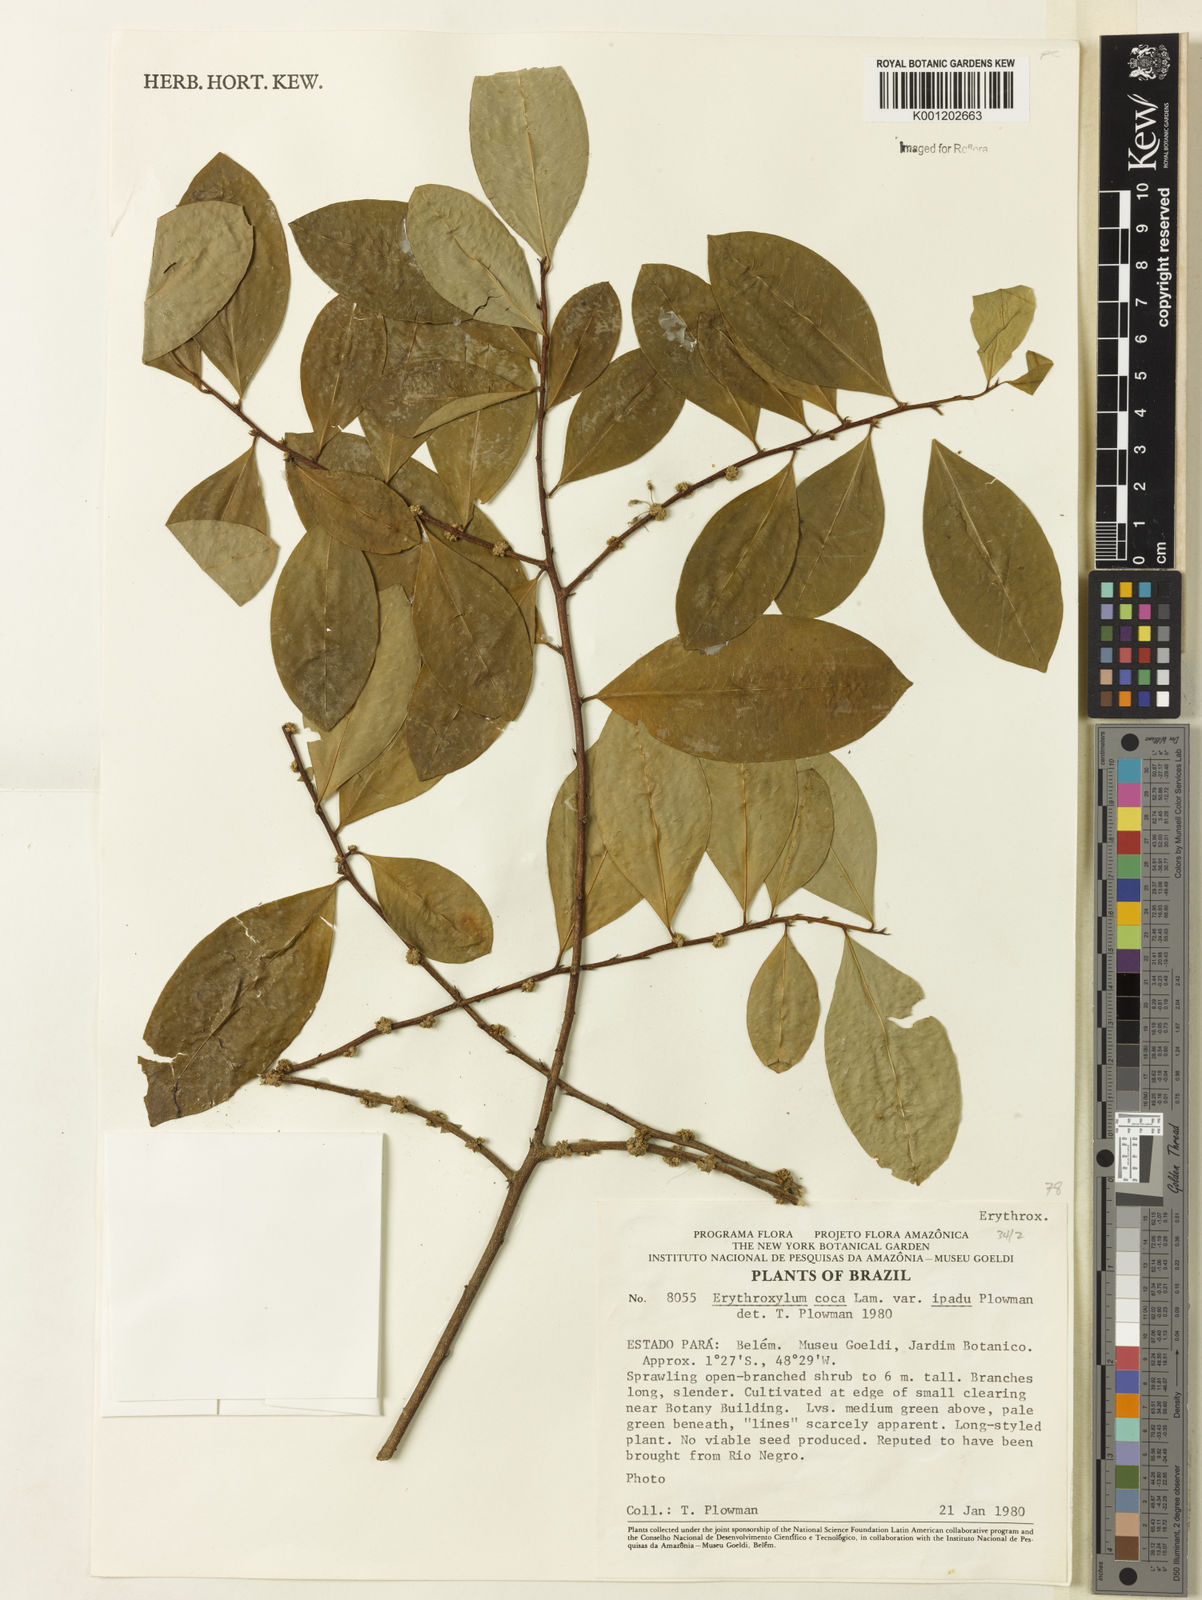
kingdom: Plantae
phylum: Tracheophyta
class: Magnoliopsida
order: Malpighiales
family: Erythroxylaceae
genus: Erythroxylum
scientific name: Erythroxylum coca
